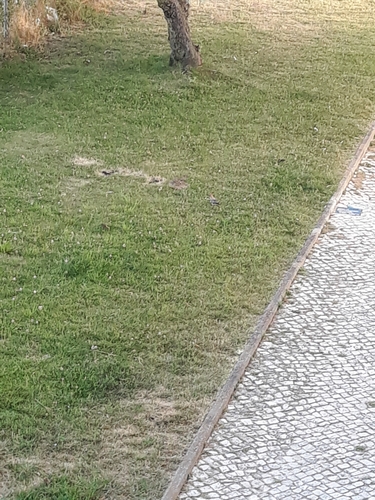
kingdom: Animalia
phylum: Chordata
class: Aves
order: Bucerotiformes
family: Upupidae
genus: Upupa
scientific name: Upupa epops
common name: Eurasian hoopoe
